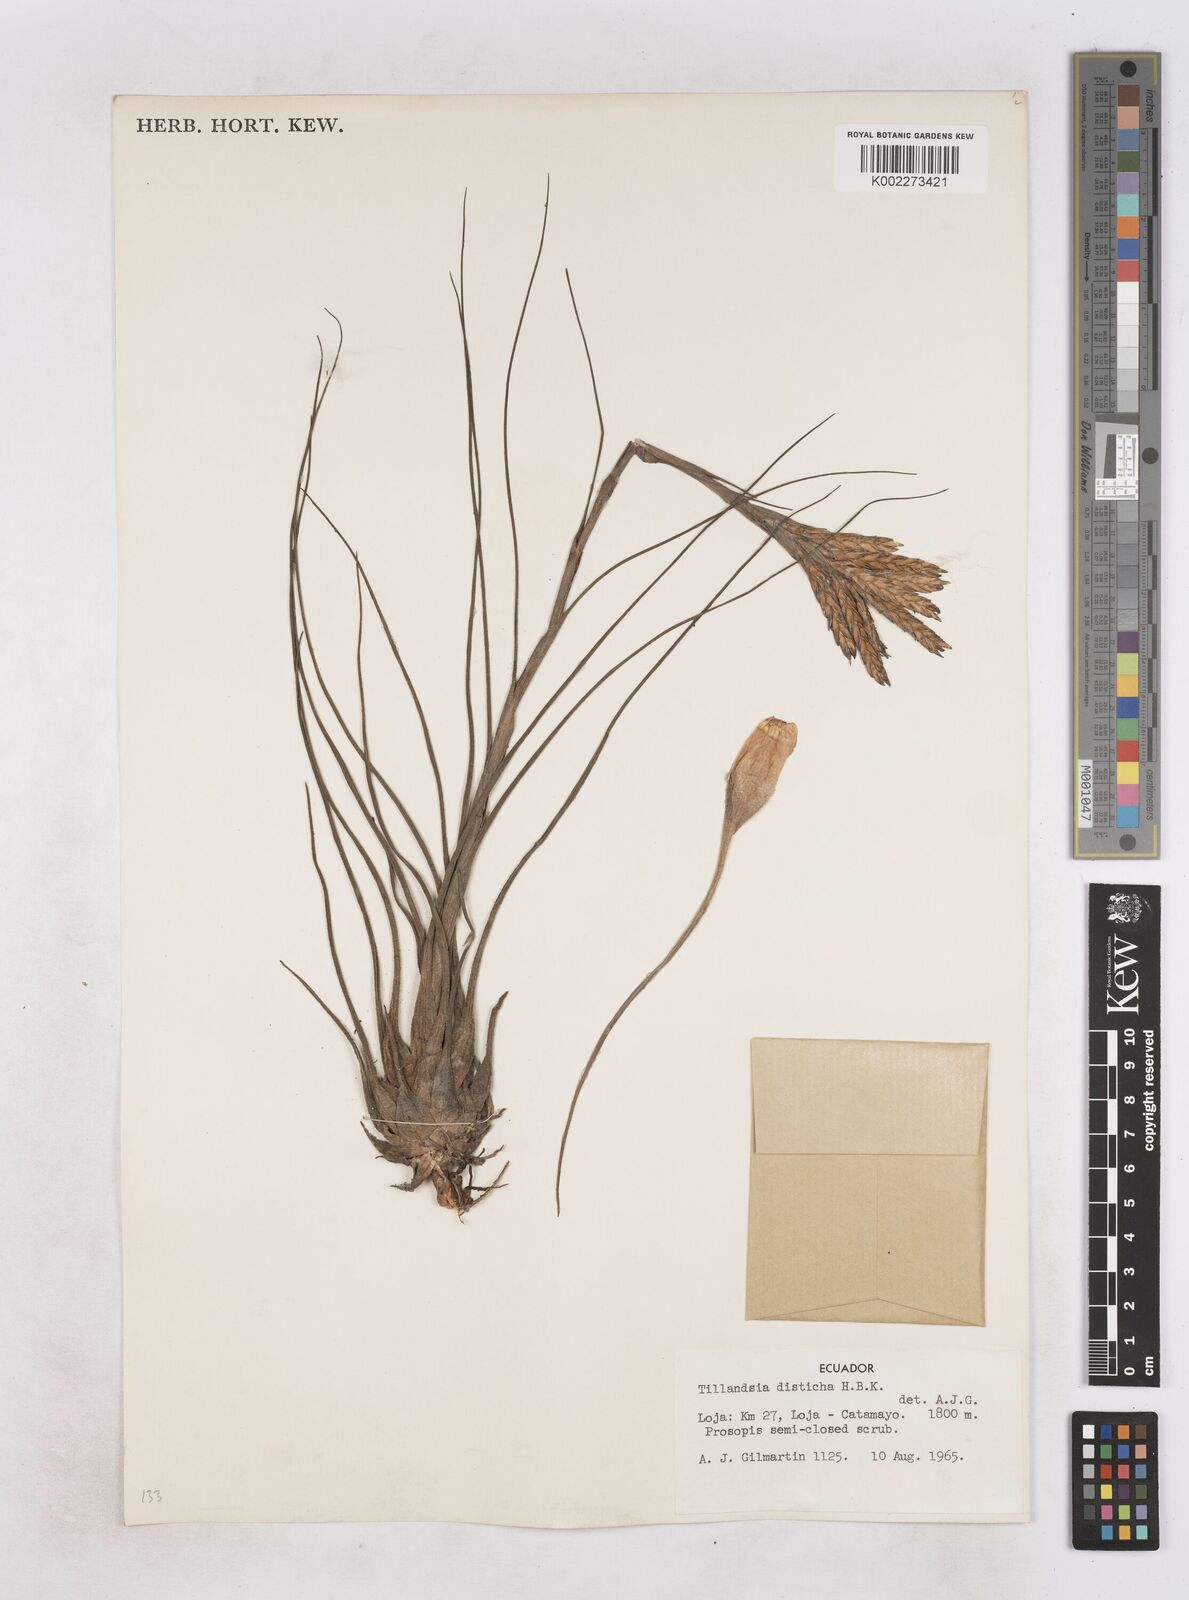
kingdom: Plantae
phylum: Tracheophyta
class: Liliopsida
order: Poales
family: Bromeliaceae
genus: Tillandsia
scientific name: Tillandsia
